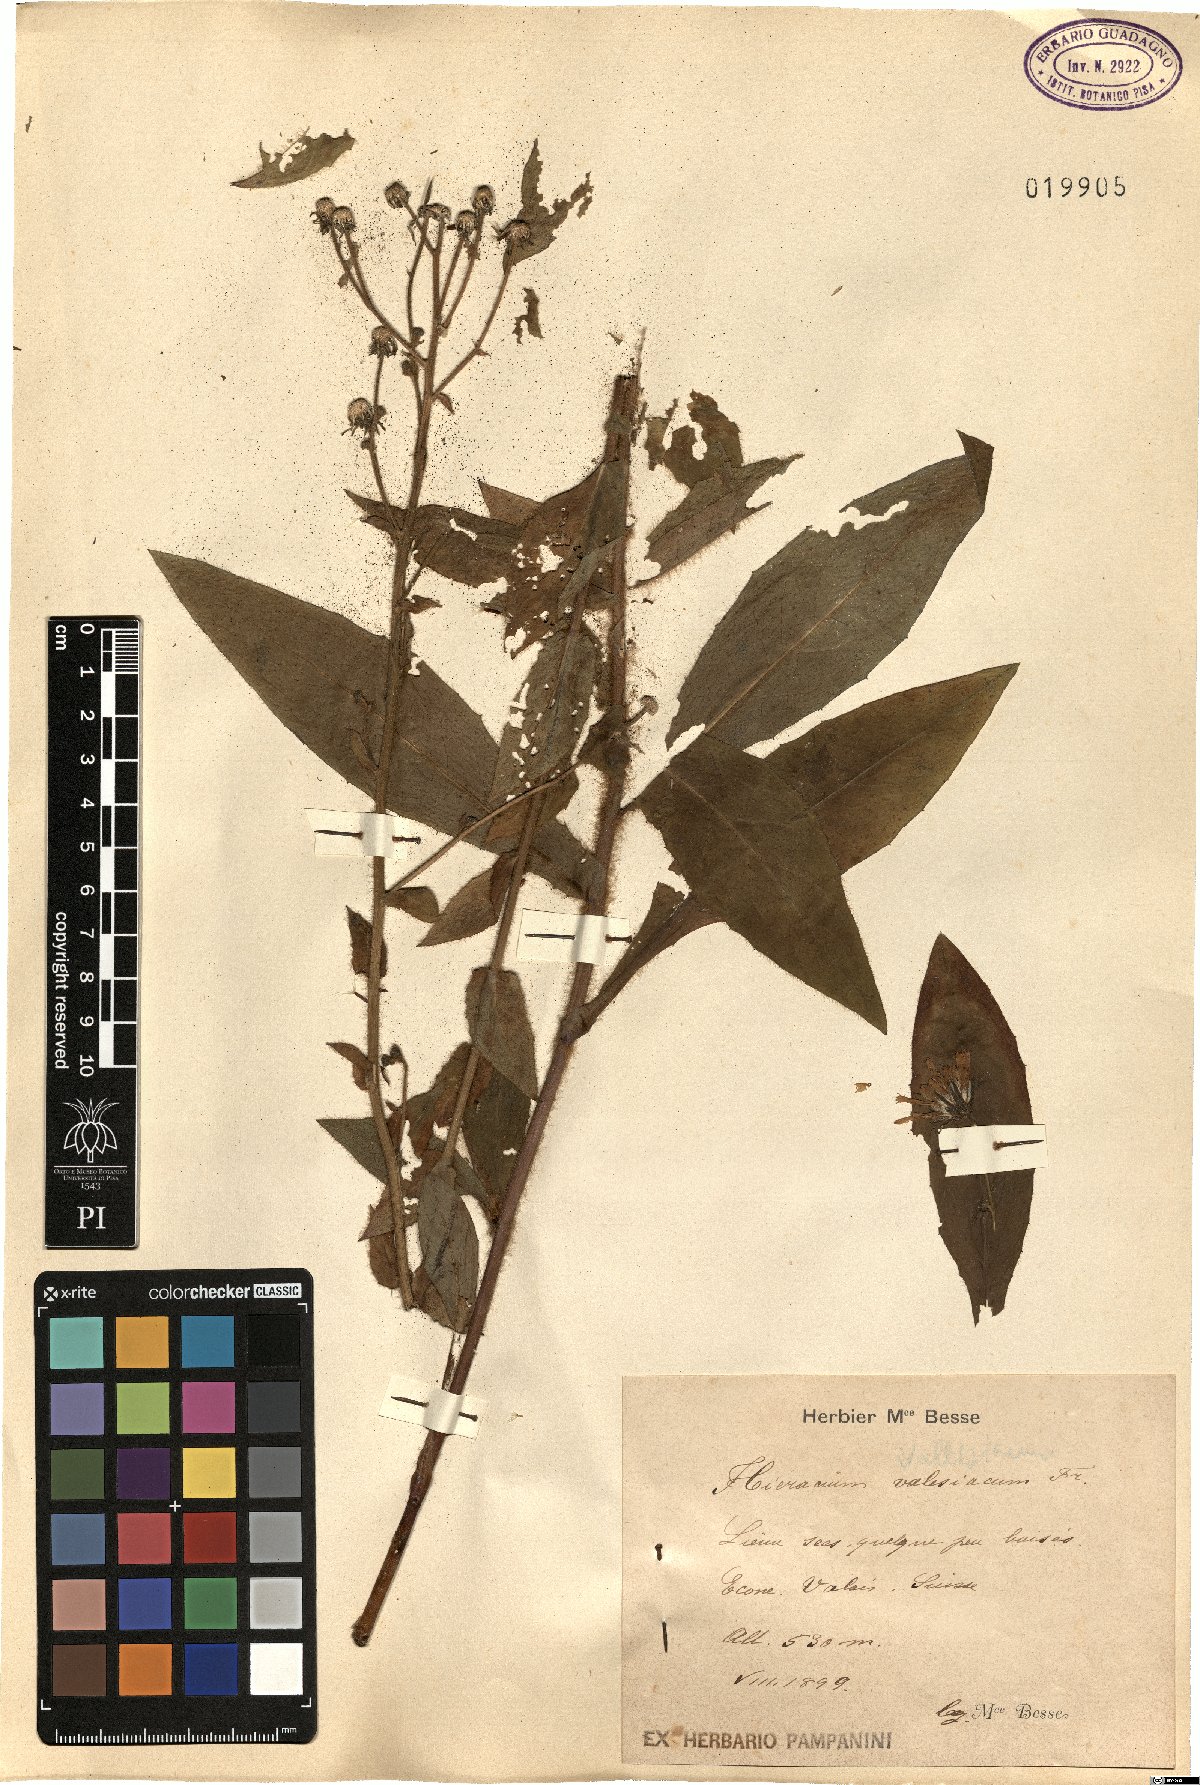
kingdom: Plantae
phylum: Tracheophyta
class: Magnoliopsida
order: Asterales
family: Asteraceae
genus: Hieracium
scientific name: Hieracium lycopifolium
